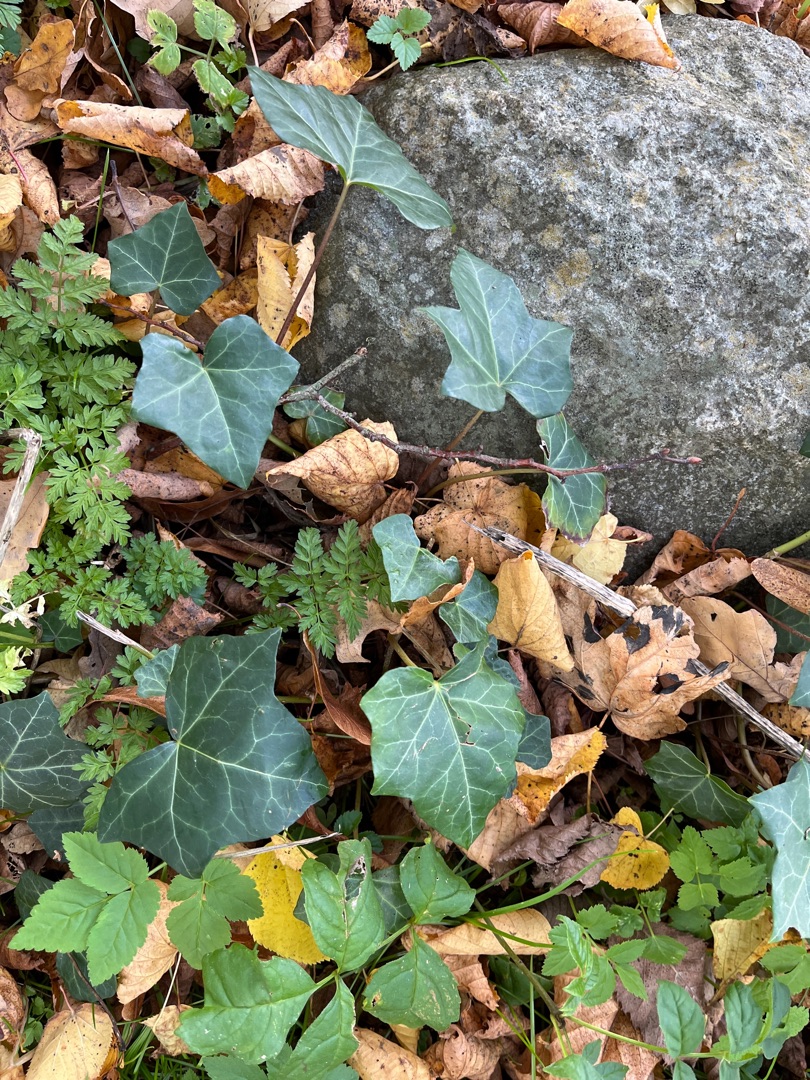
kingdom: Plantae
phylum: Tracheophyta
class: Magnoliopsida
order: Apiales
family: Araliaceae
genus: Hedera
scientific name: Hedera helix
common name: Vedbend
